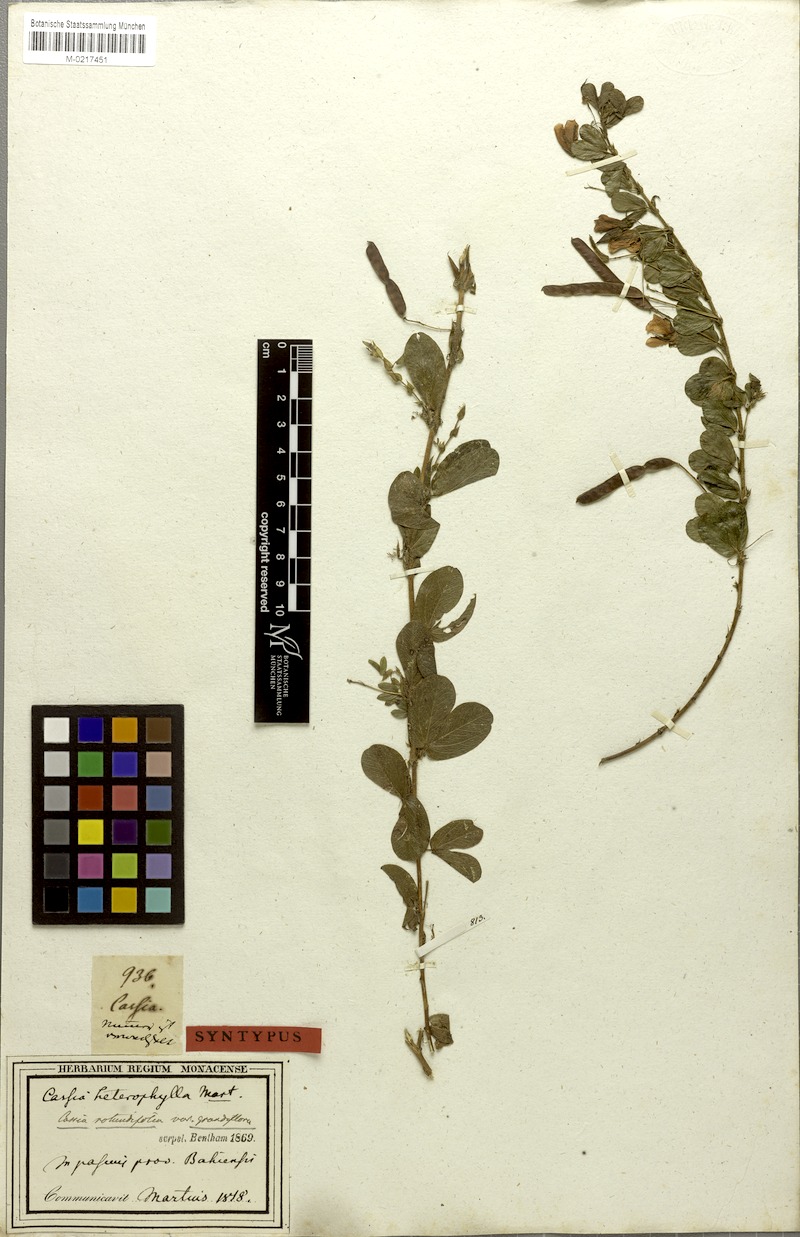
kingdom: Plantae
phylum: Tracheophyta
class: Magnoliopsida
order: Fabales
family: Fabaceae
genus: Chamaecrista
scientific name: Chamaecrista rotundifolia
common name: Round-leaf cassia
